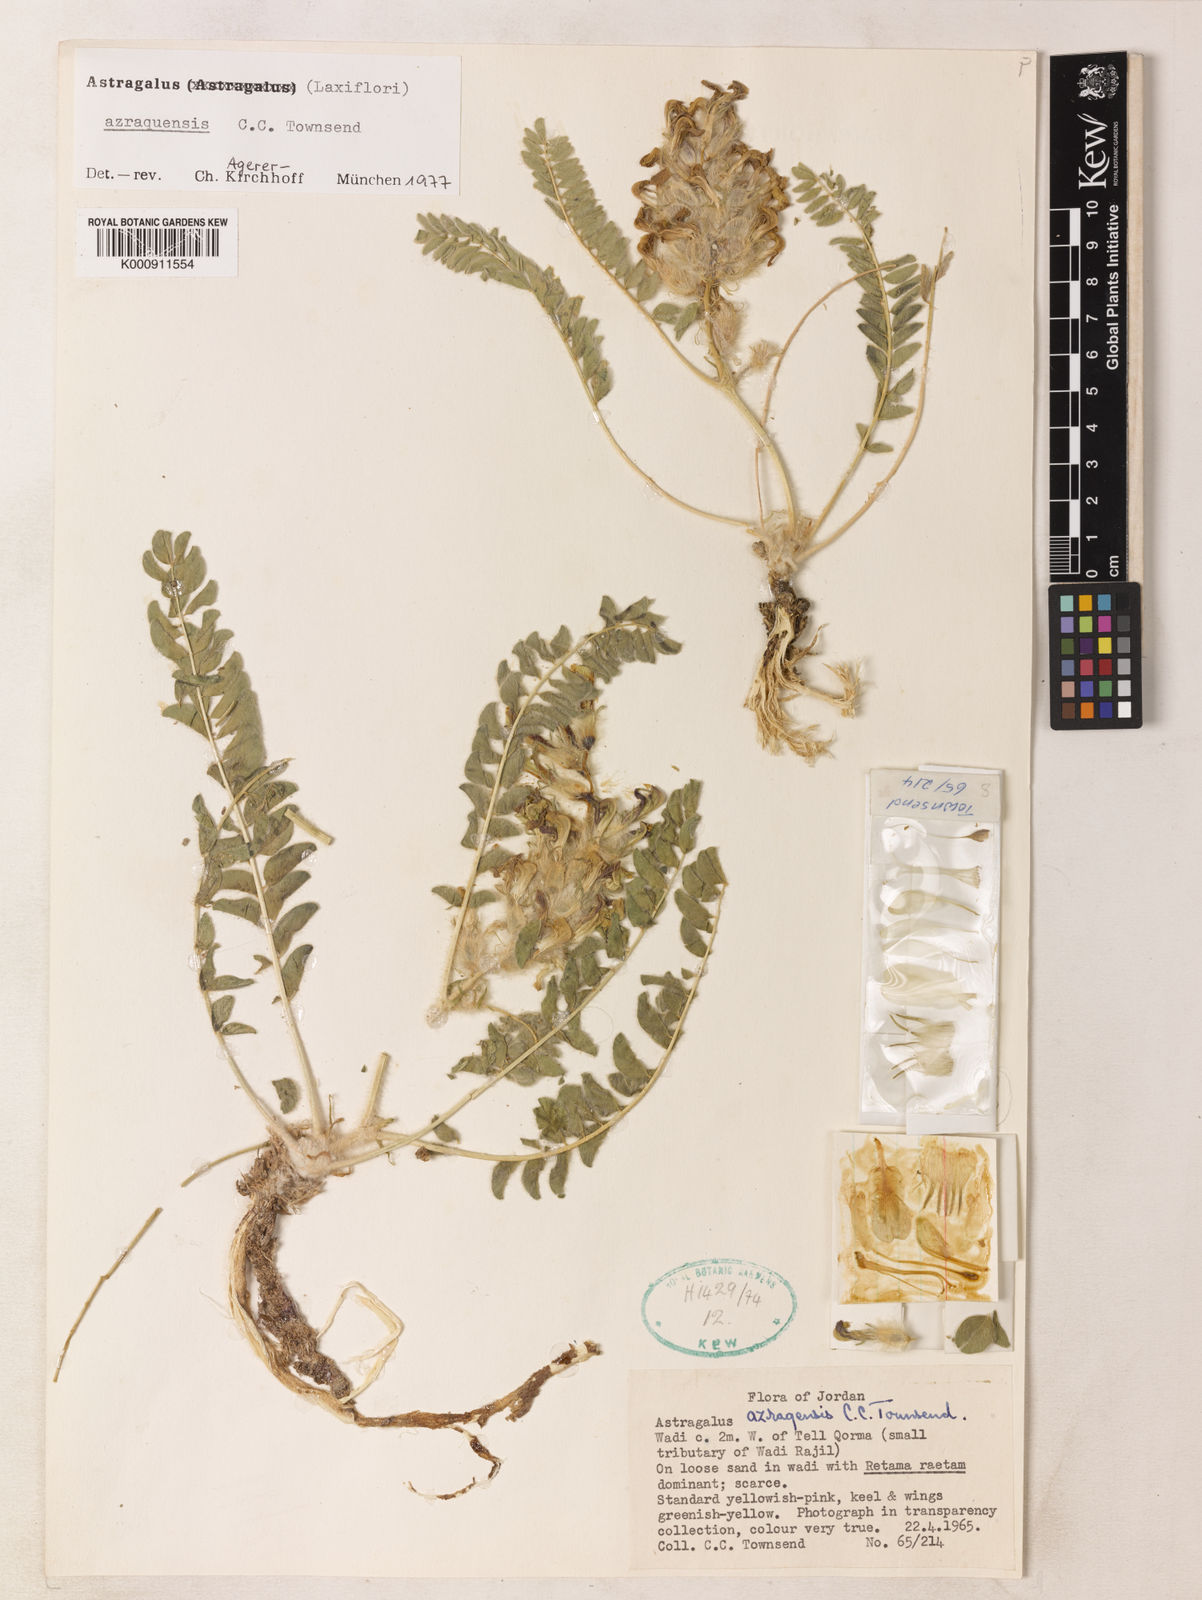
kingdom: Plantae
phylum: Tracheophyta
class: Magnoliopsida
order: Fabales
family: Fabaceae
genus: Astragalus
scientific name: Astragalus azraqensis
